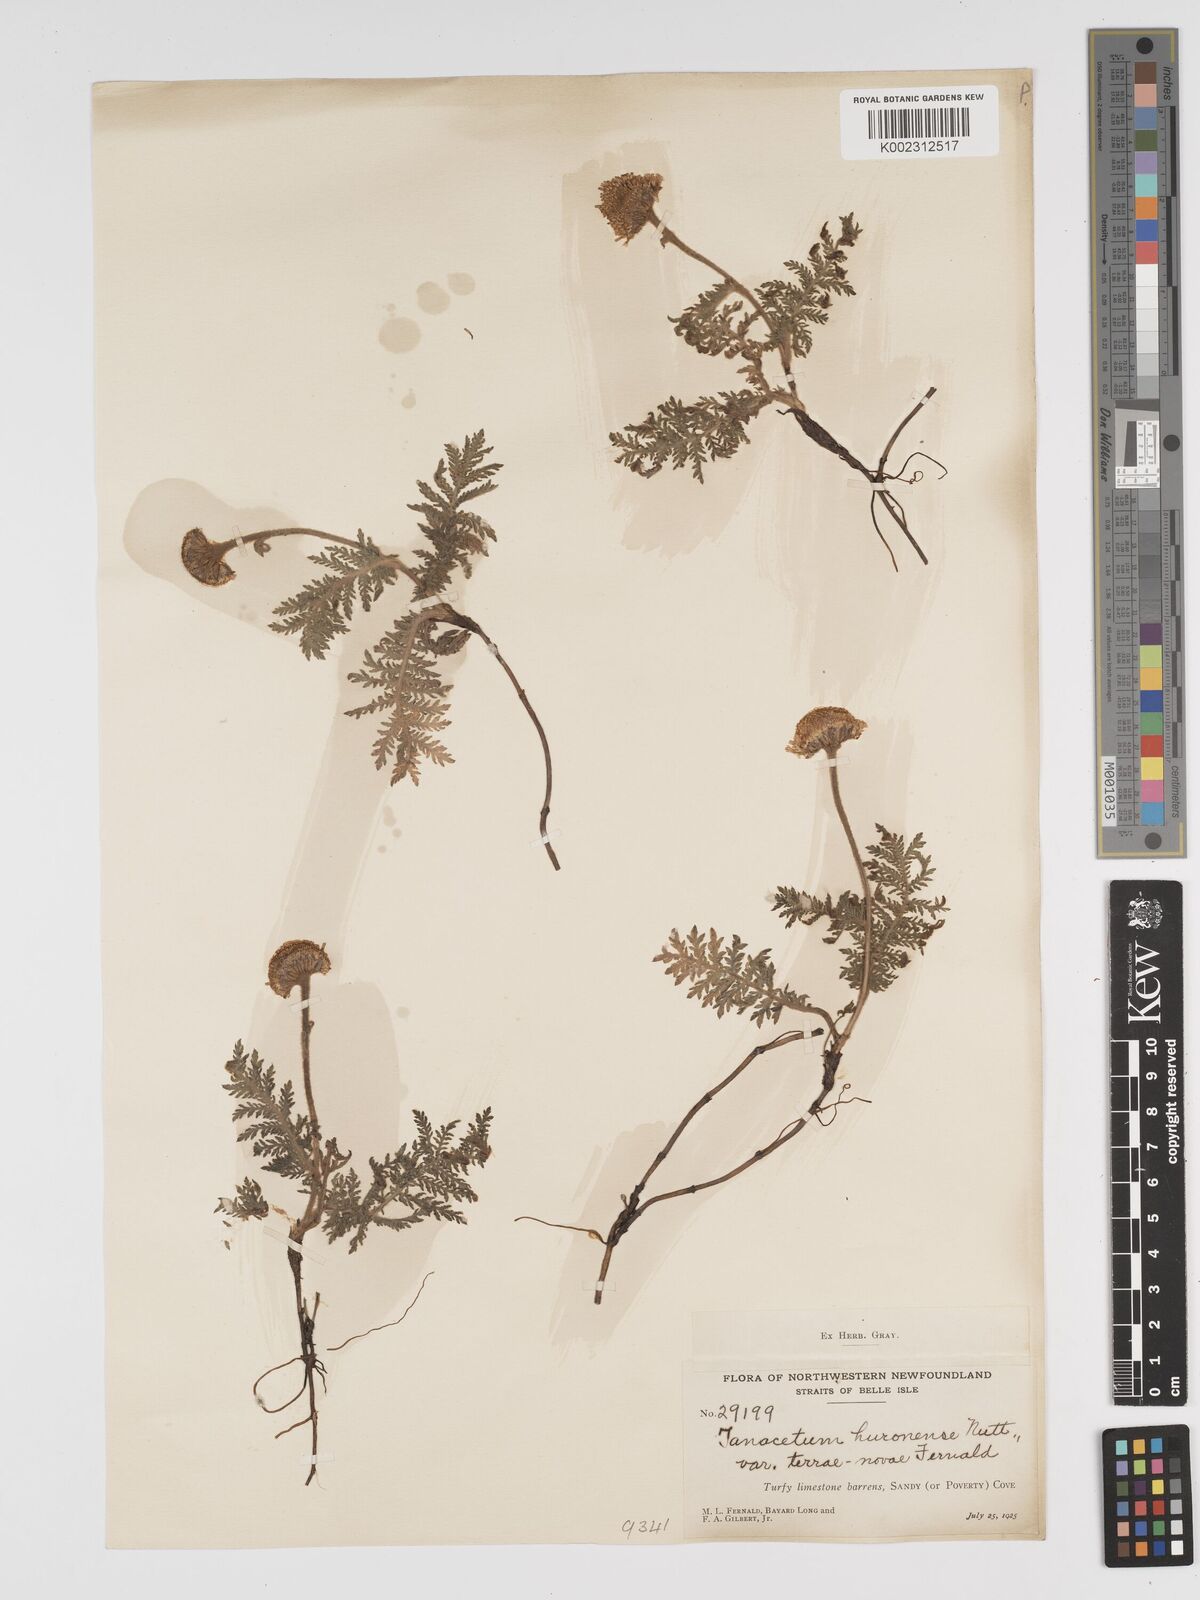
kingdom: Plantae
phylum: Tracheophyta
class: Magnoliopsida
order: Asterales
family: Asteraceae
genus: Tanacetum
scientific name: Tanacetum bipinnatum
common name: Dwarf tansy
